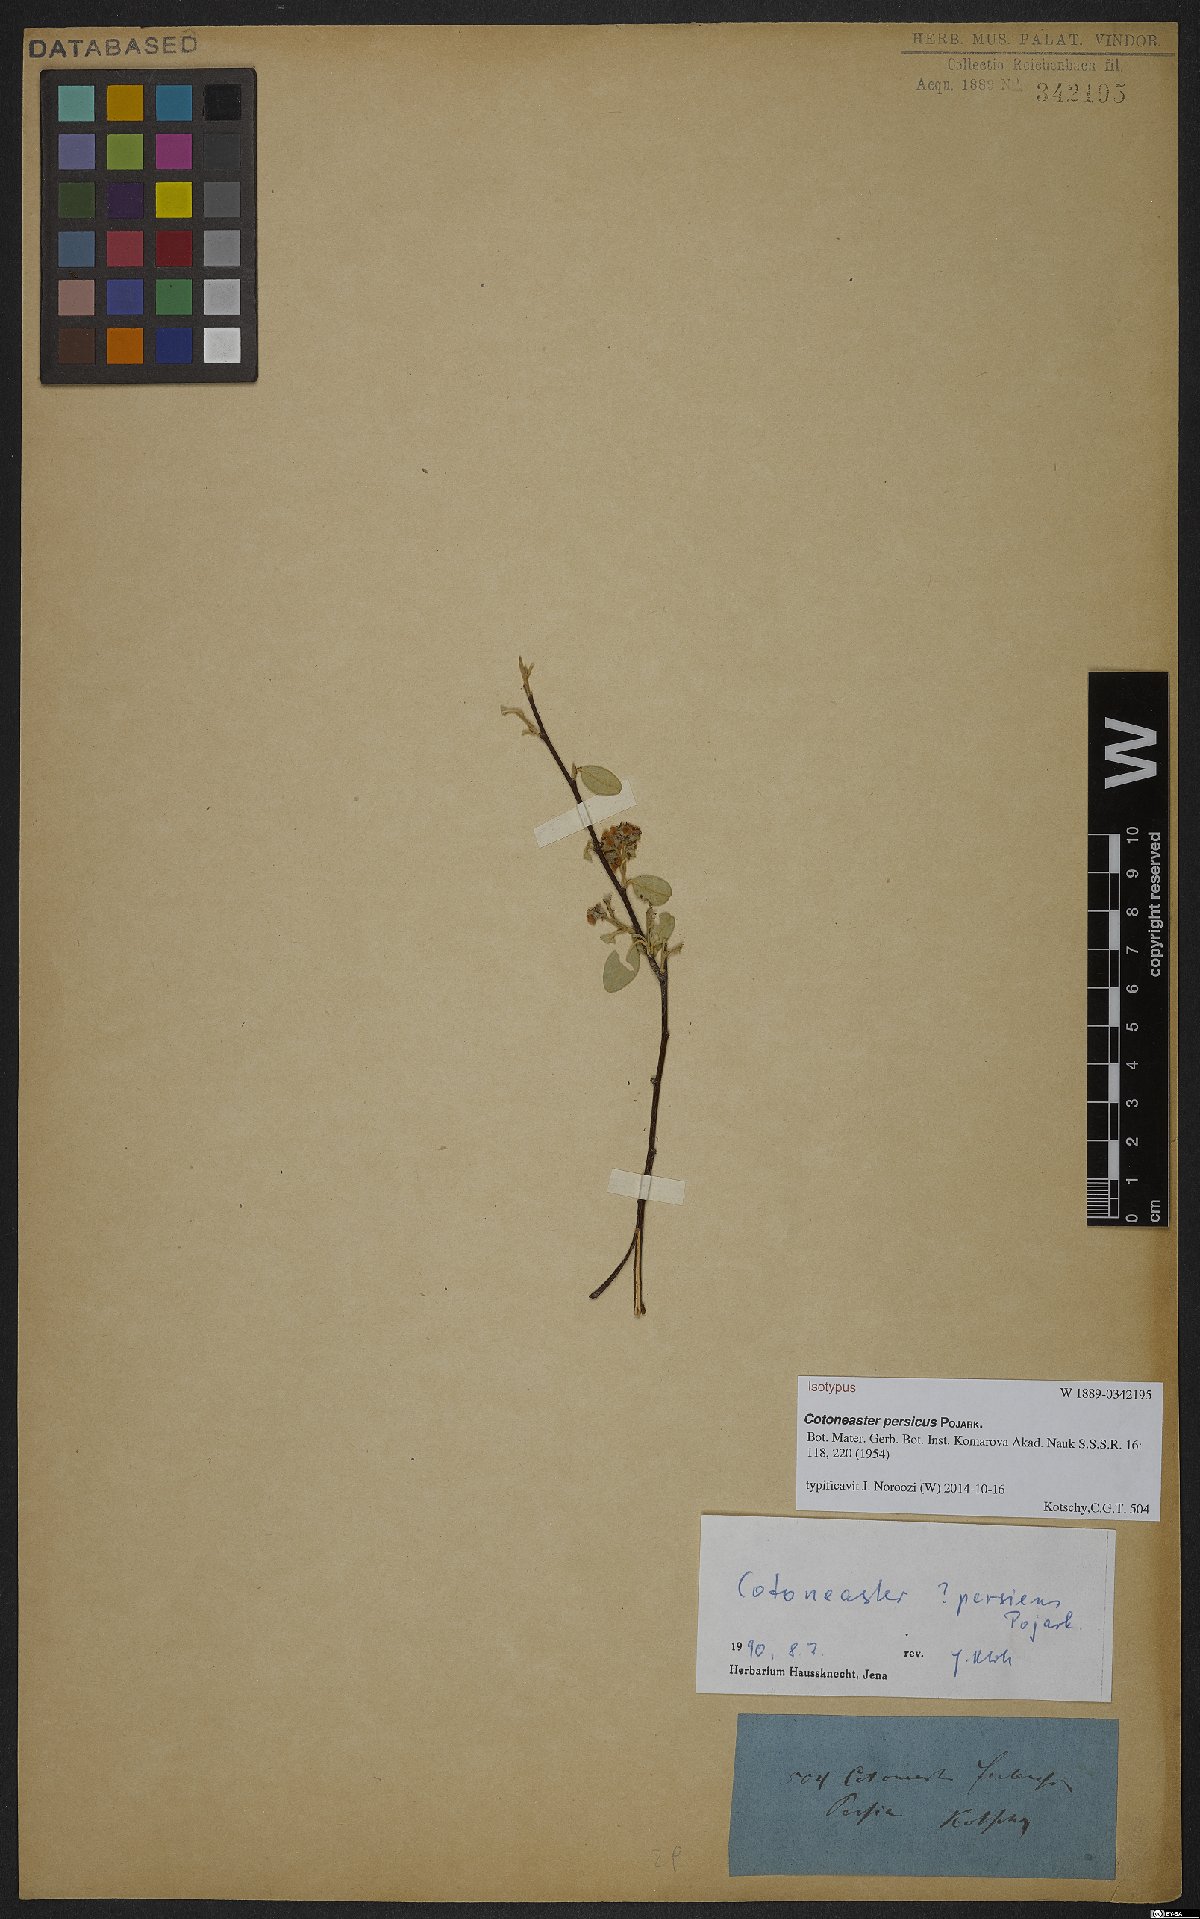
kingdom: Plantae
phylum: Tracheophyta
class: Magnoliopsida
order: Rosales
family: Rosaceae
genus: Cotoneaster
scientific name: Cotoneaster persicus
